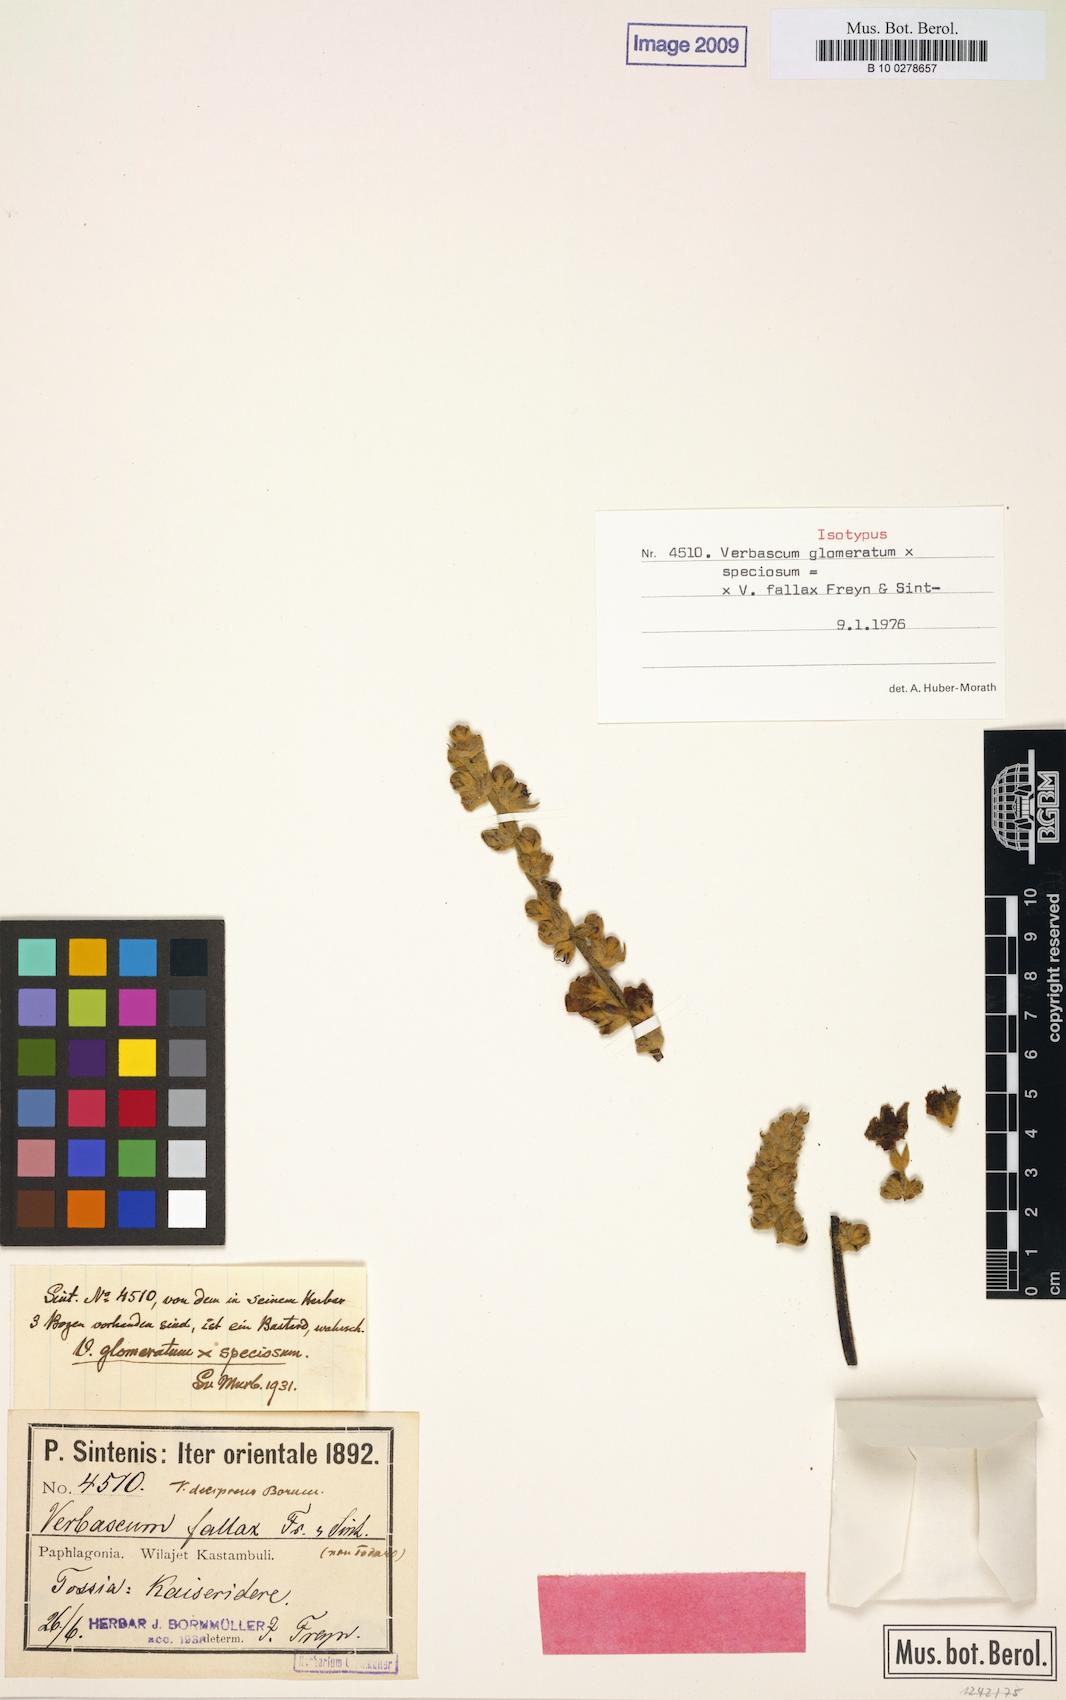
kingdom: Plantae
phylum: Tracheophyta
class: Magnoliopsida
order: Lamiales
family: Scrophulariaceae
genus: Verbascum
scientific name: Verbascum fallax
